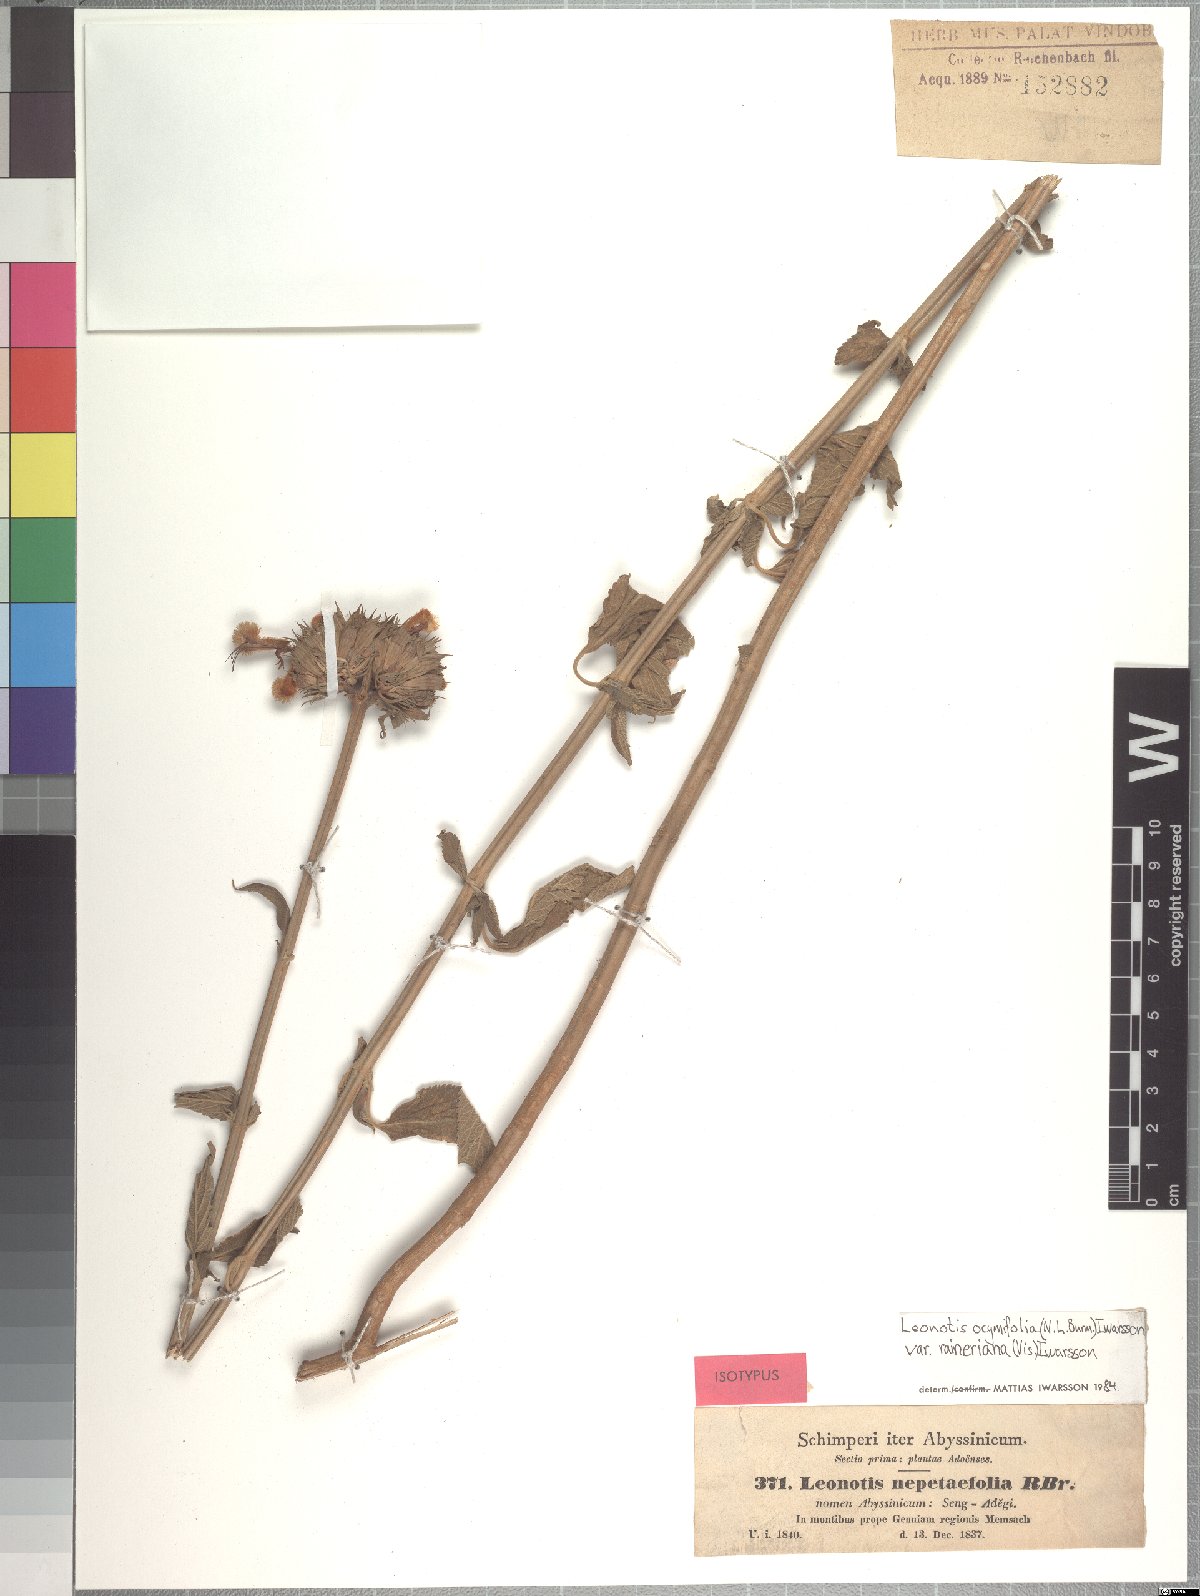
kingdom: Plantae
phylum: Tracheophyta
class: Magnoliopsida
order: Lamiales
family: Lamiaceae
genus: Leonotis
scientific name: Leonotis ocymifolia
